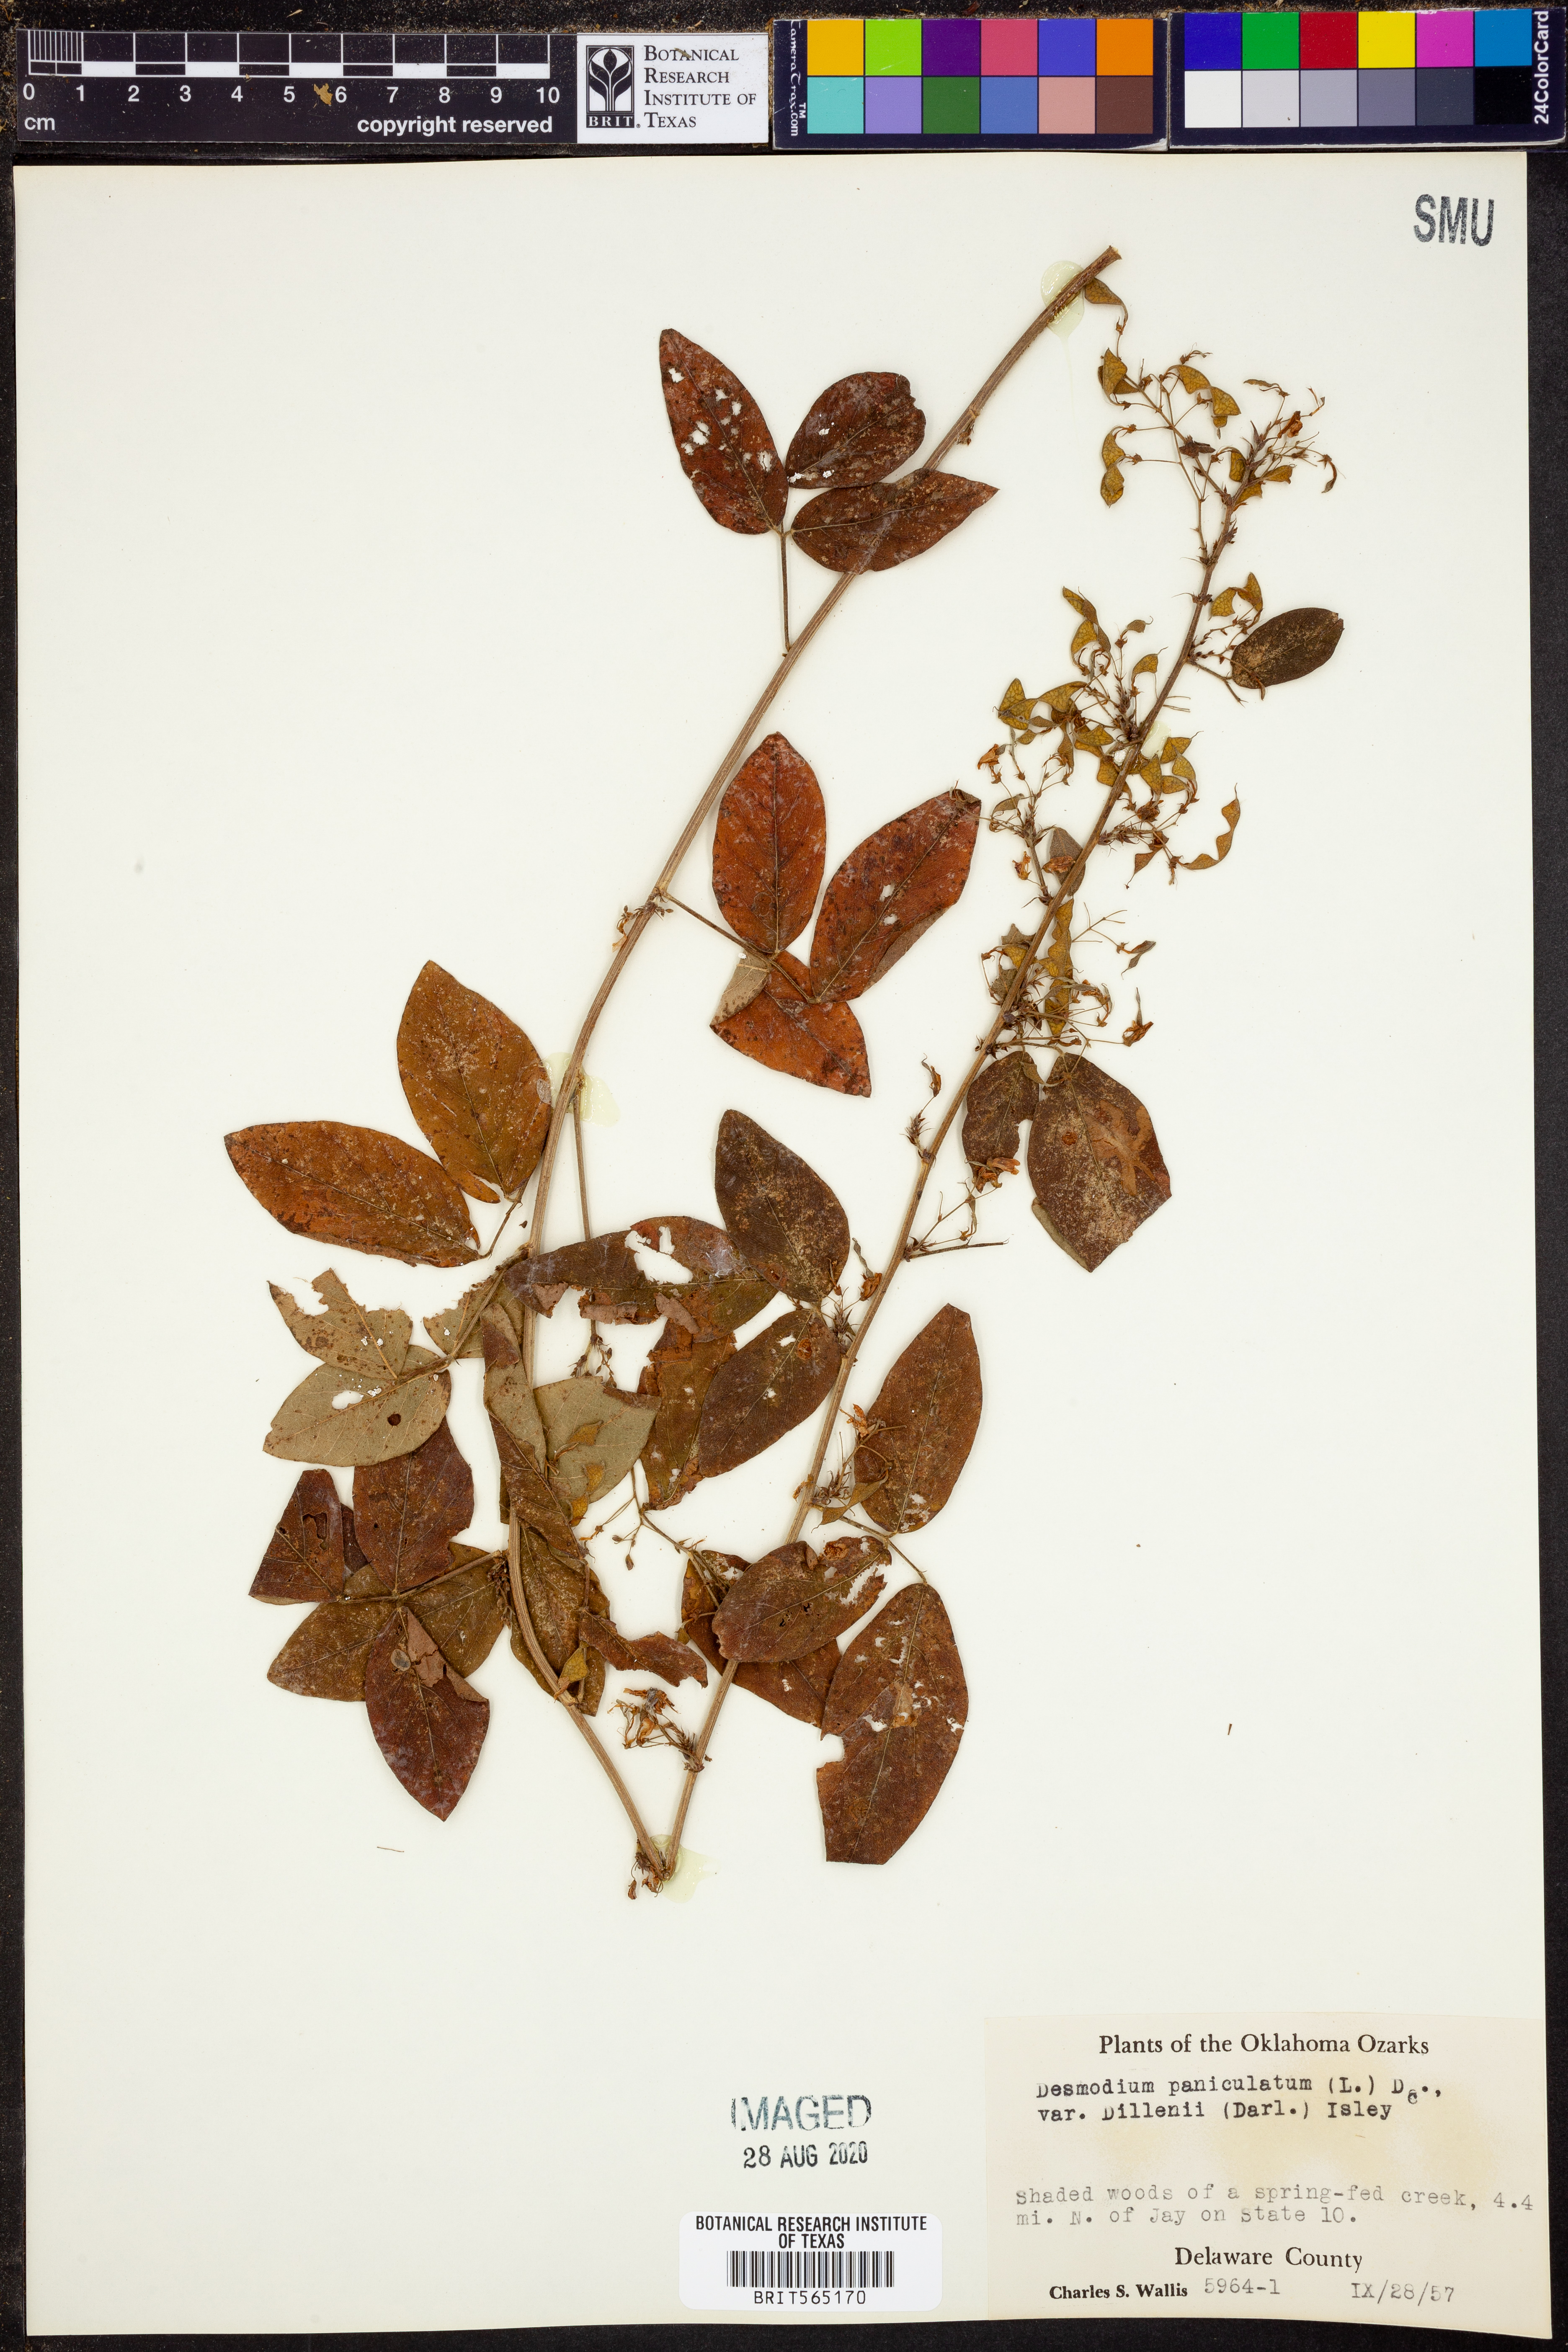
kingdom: Plantae
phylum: Tracheophyta
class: Magnoliopsida
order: Fabales
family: Fabaceae
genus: Desmodium
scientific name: Desmodium perplexum
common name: Perplexed tick trefoil
